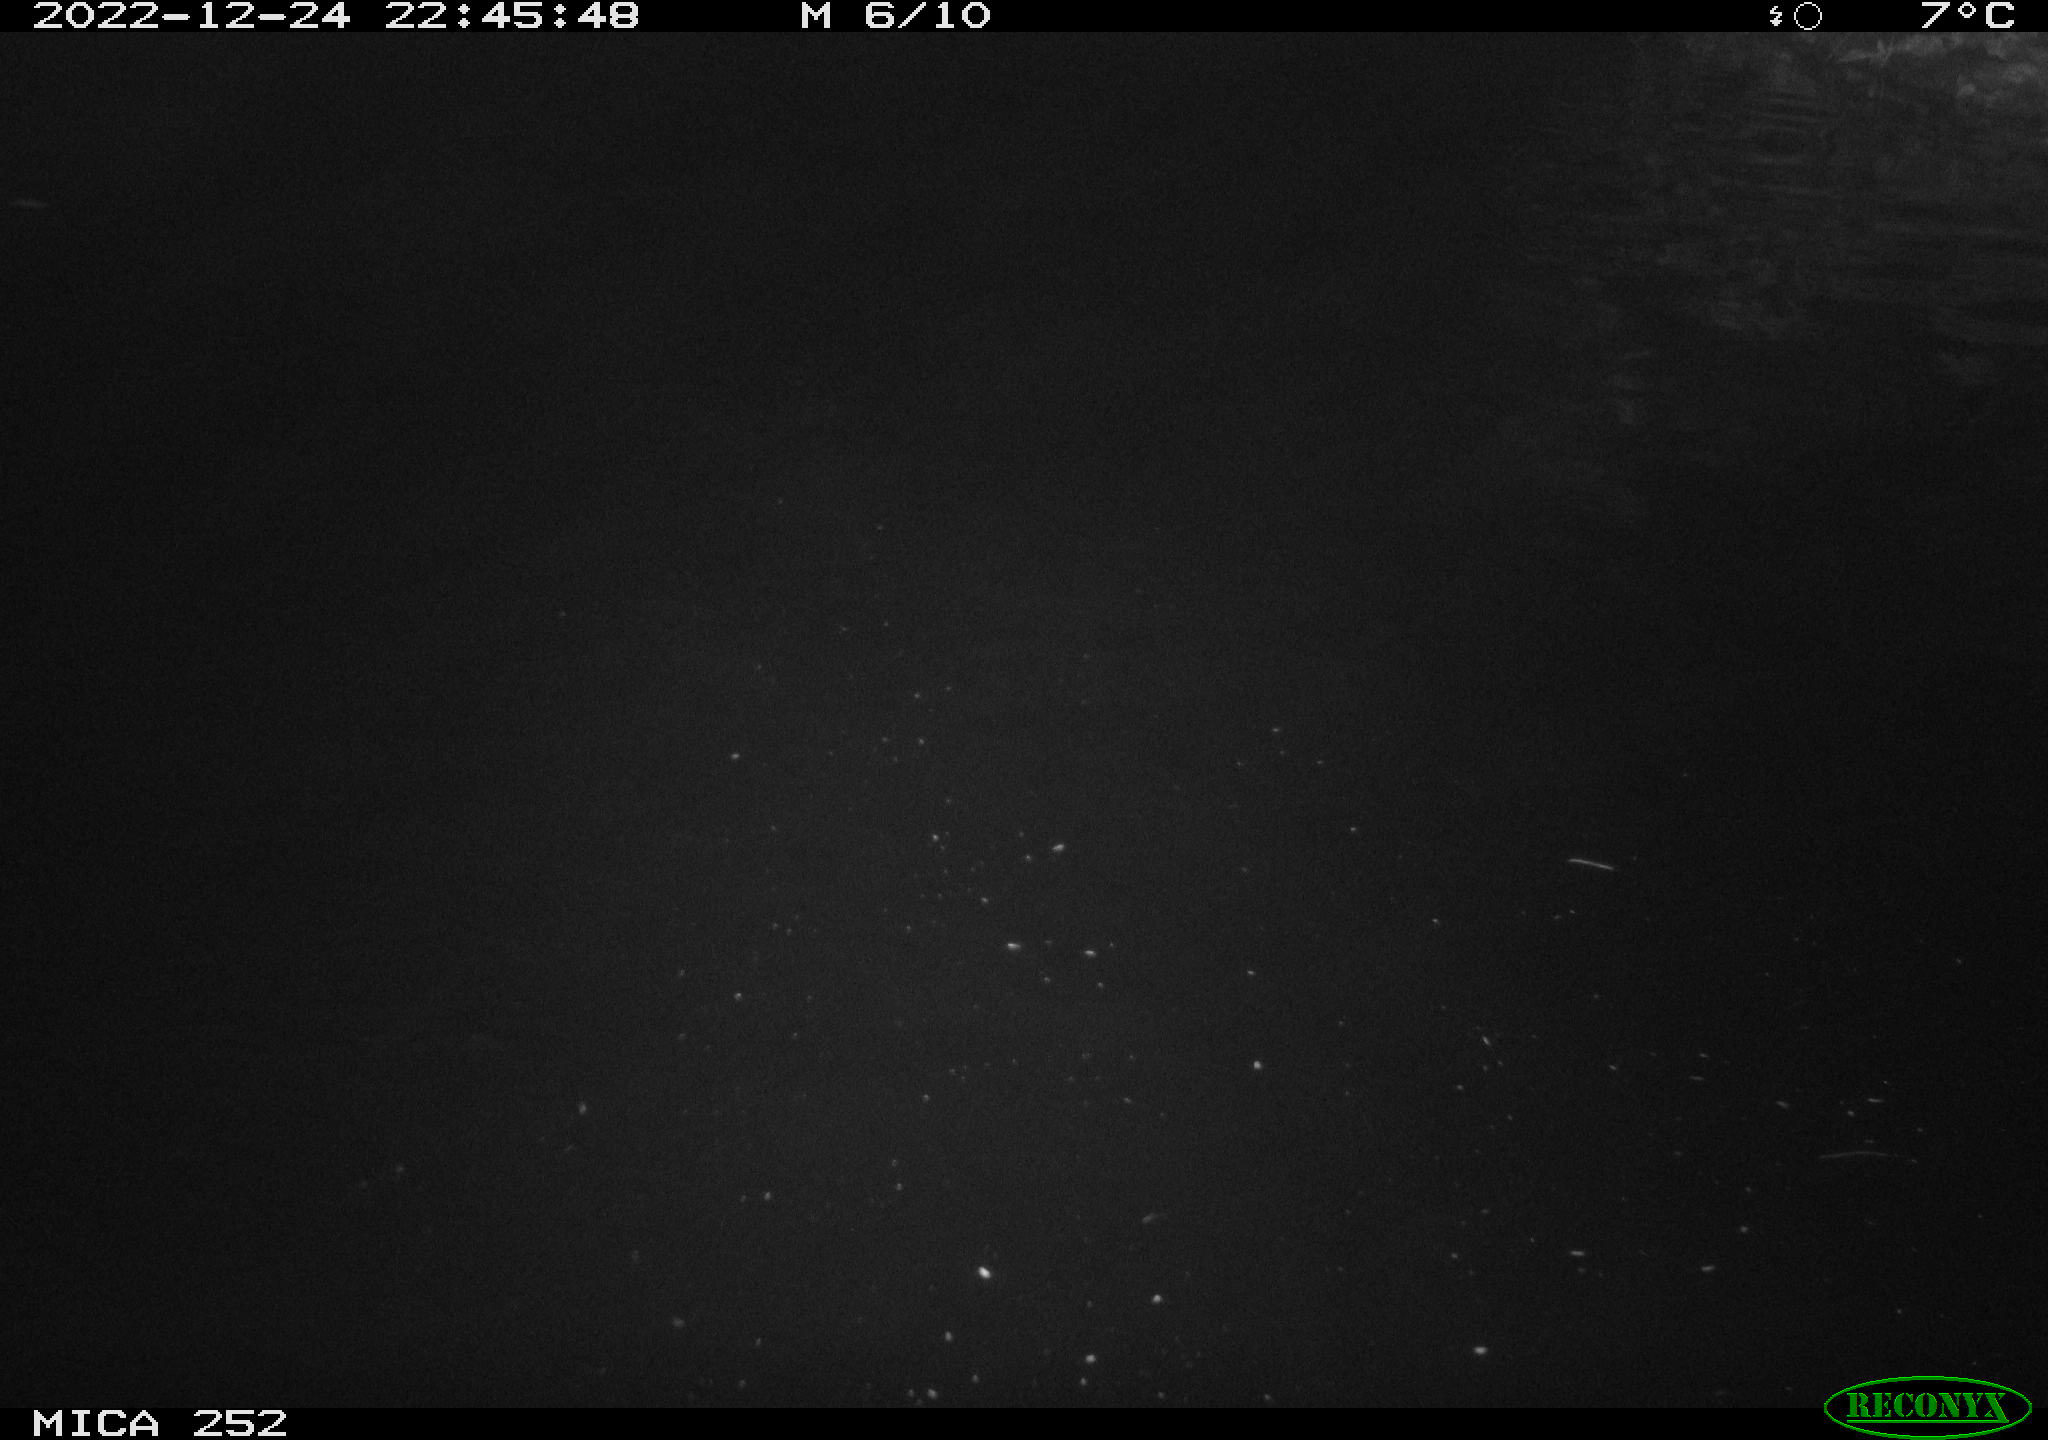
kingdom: Animalia
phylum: Chordata
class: Mammalia
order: Rodentia
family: Castoridae
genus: Castor
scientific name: Castor fiber
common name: Eurasian beaver
